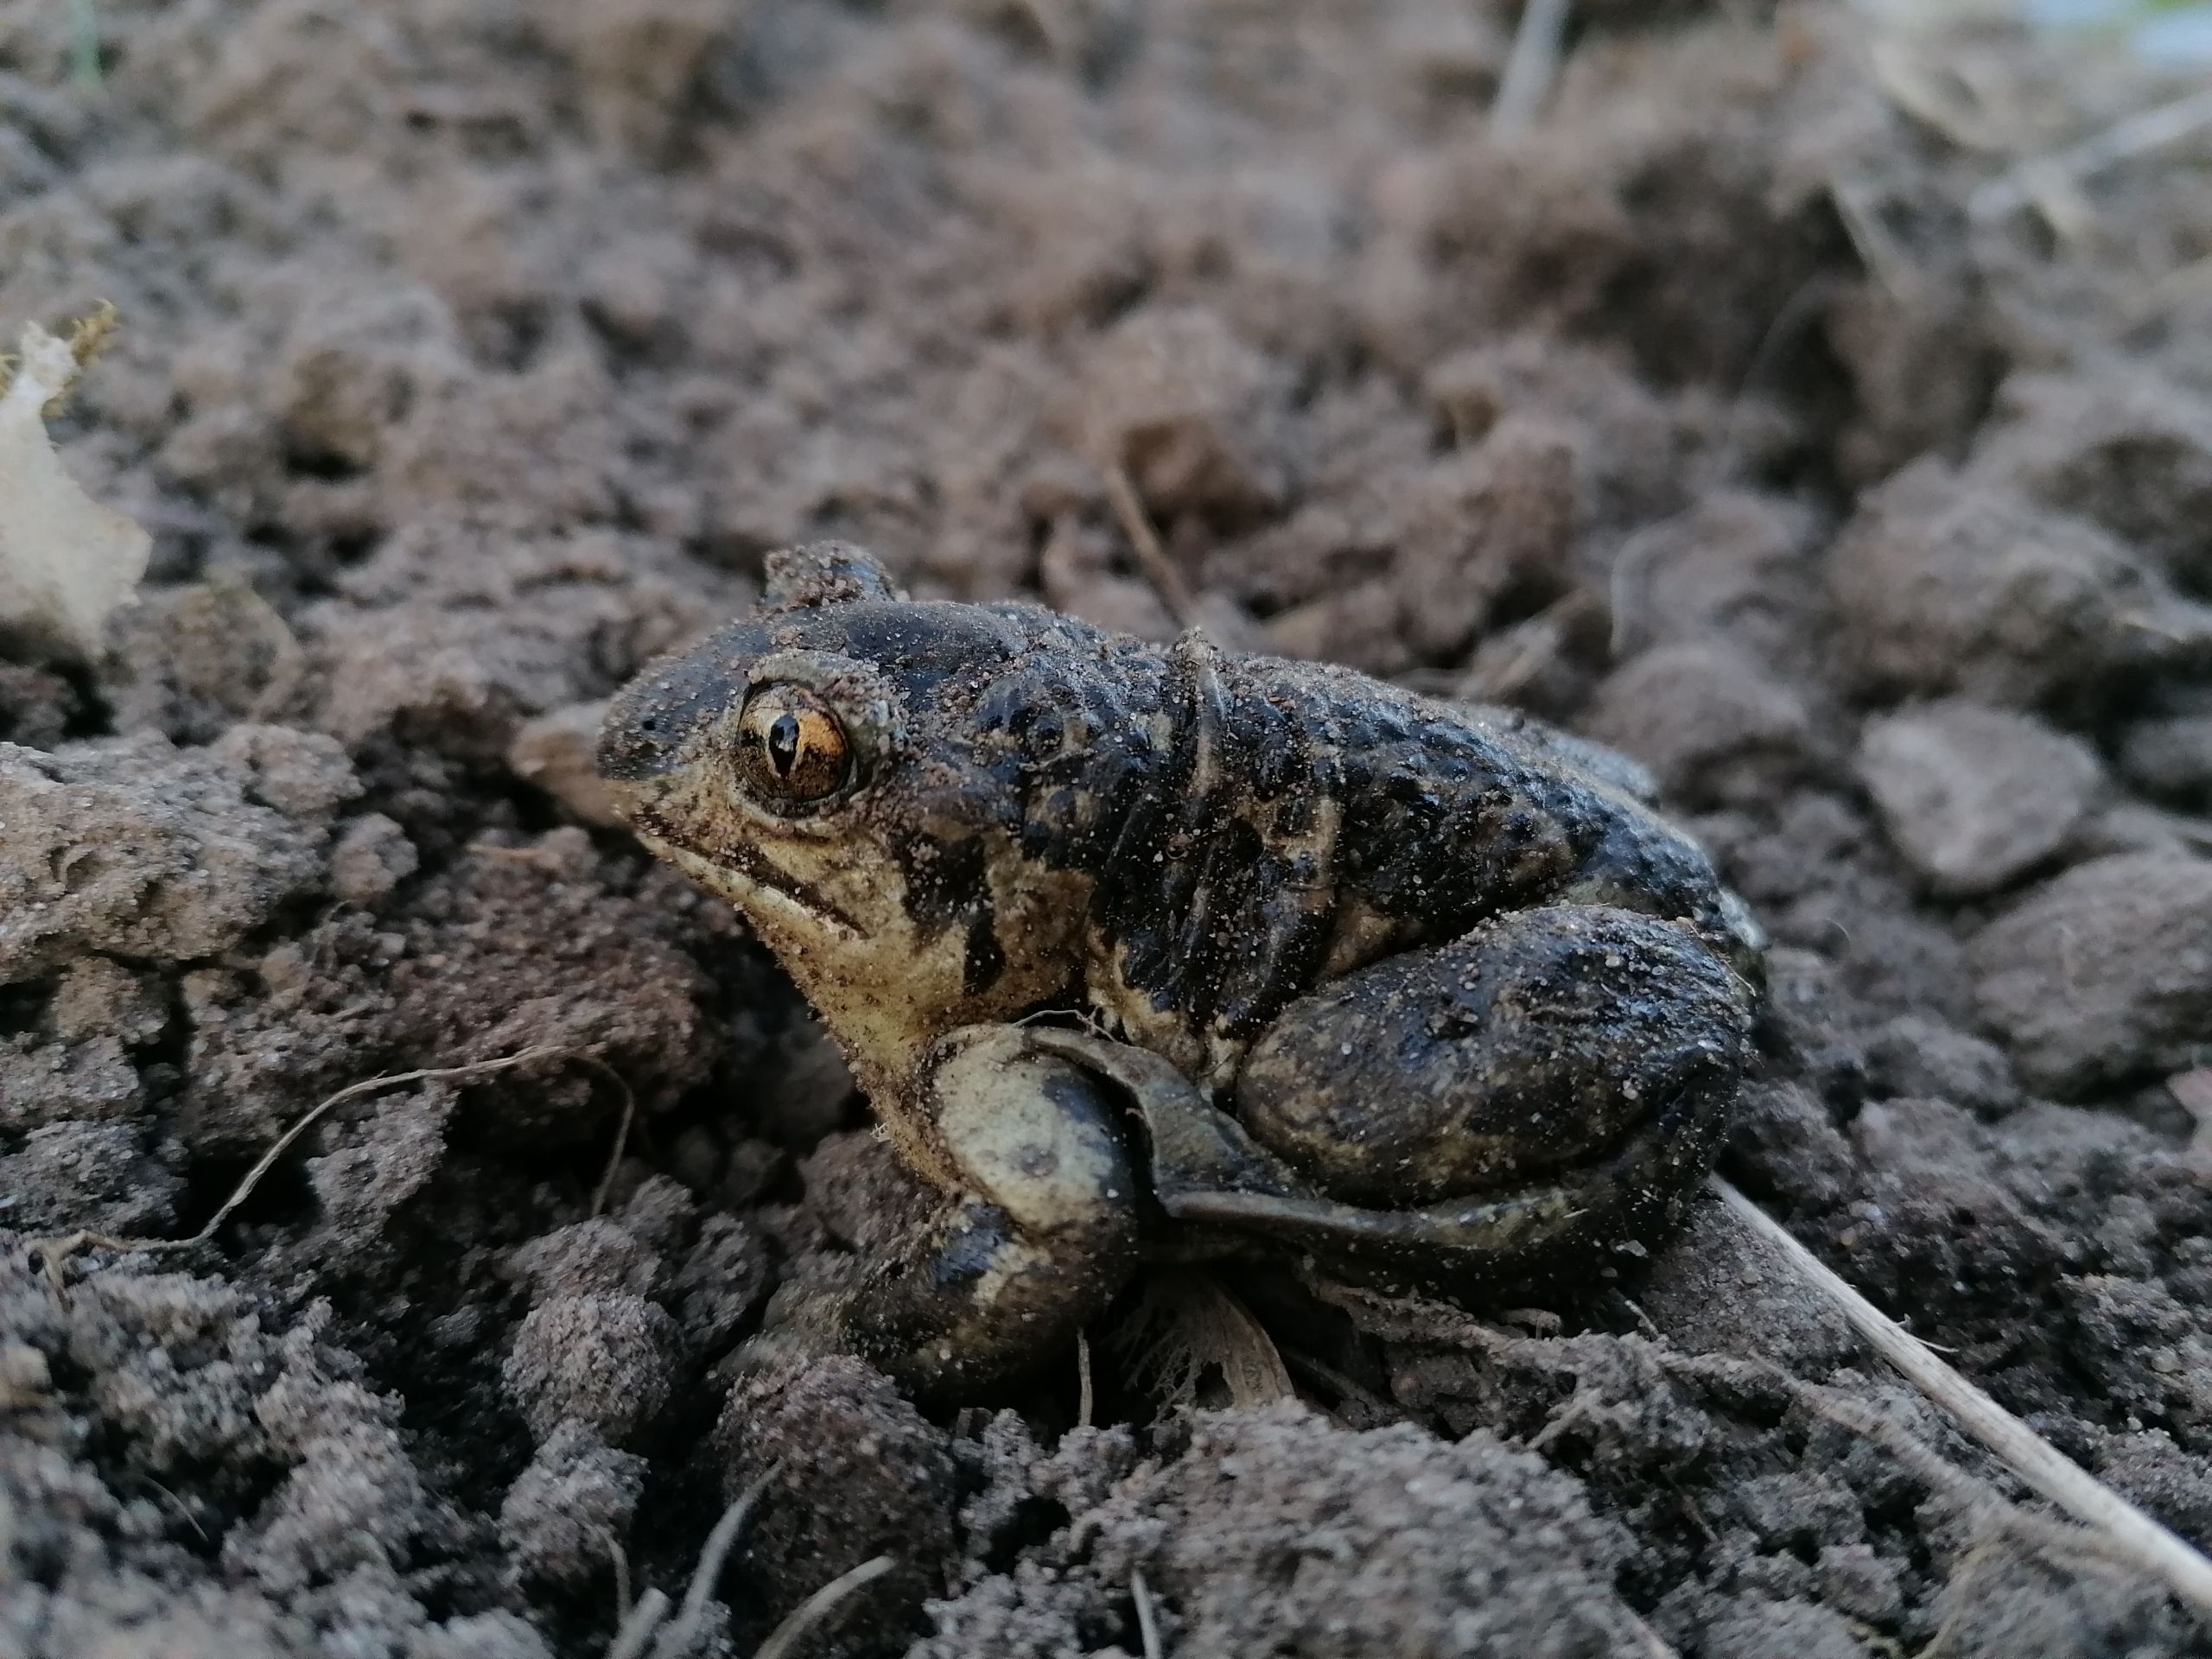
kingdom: Animalia
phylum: Chordata
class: Amphibia
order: Anura
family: Pelobatidae
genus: Pelobates
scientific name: Pelobates fuscus
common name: Løgfrø
